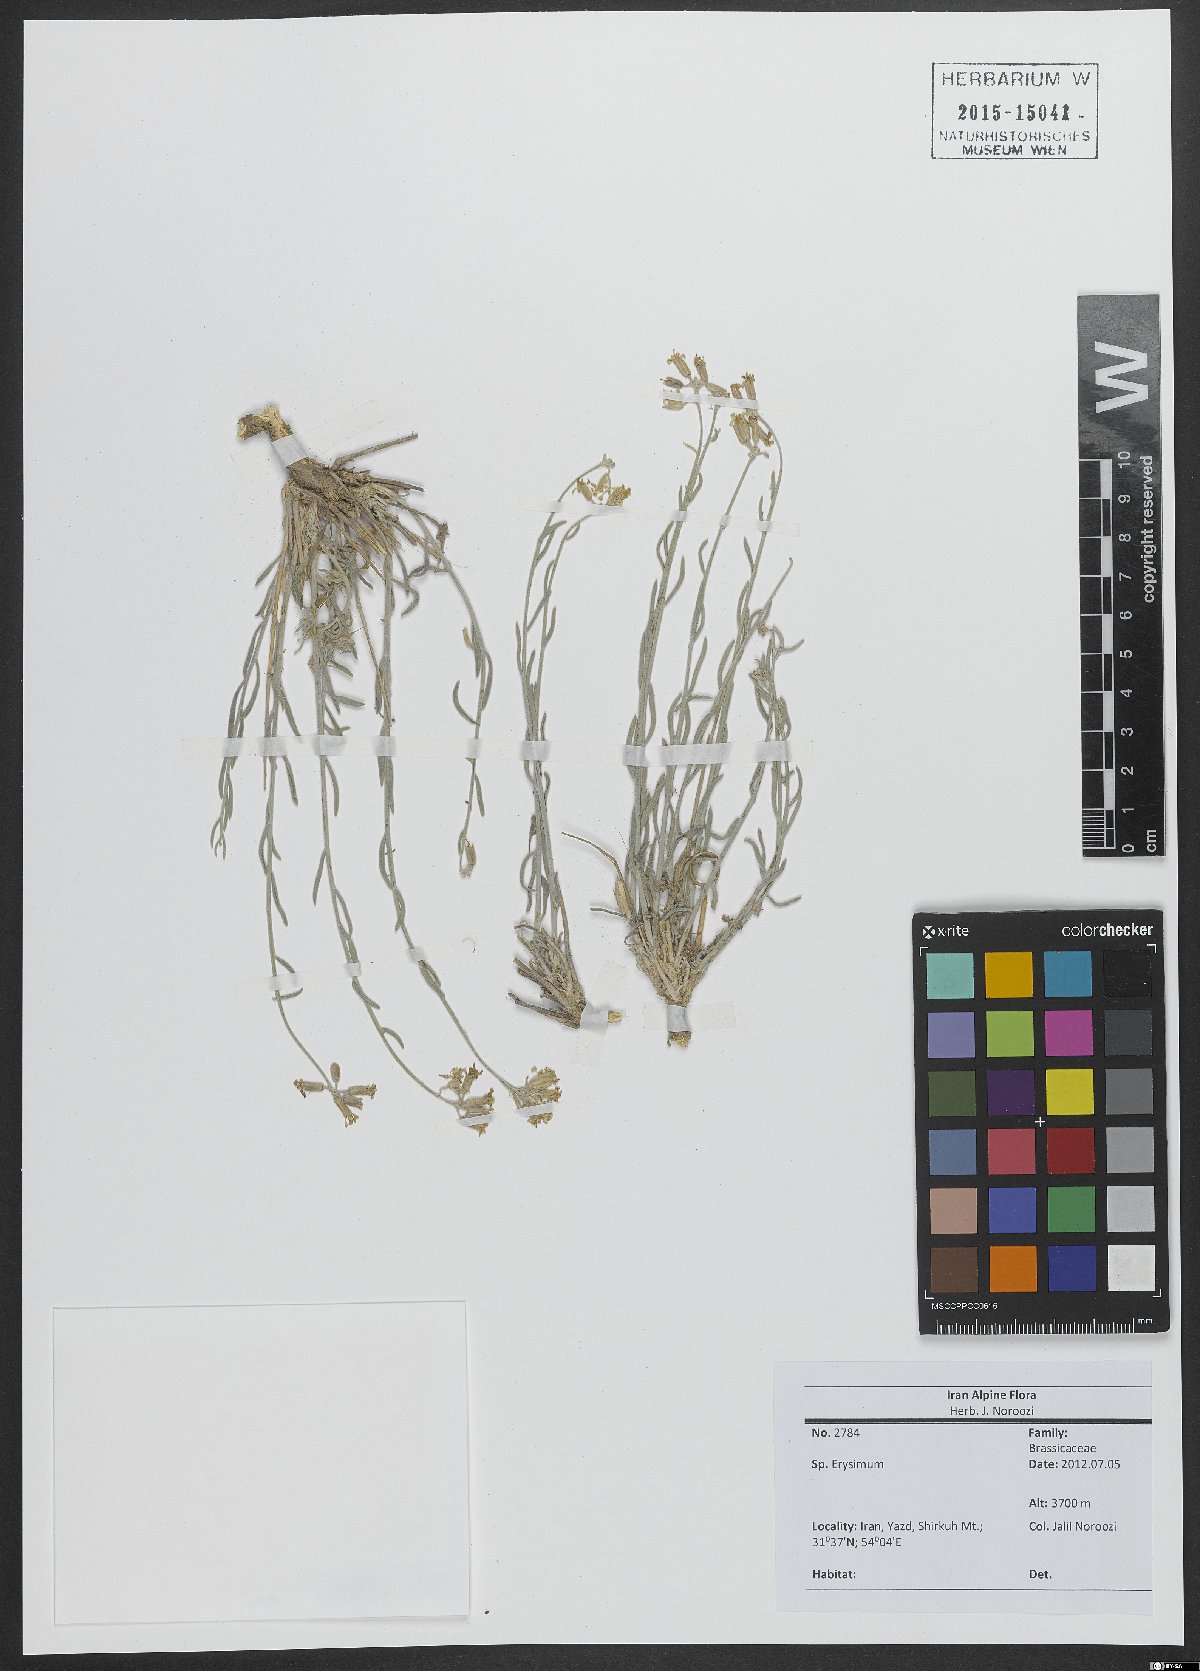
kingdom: Plantae
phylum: Tracheophyta
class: Magnoliopsida
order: Brassicales
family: Brassicaceae
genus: Erysimum
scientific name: Erysimum
